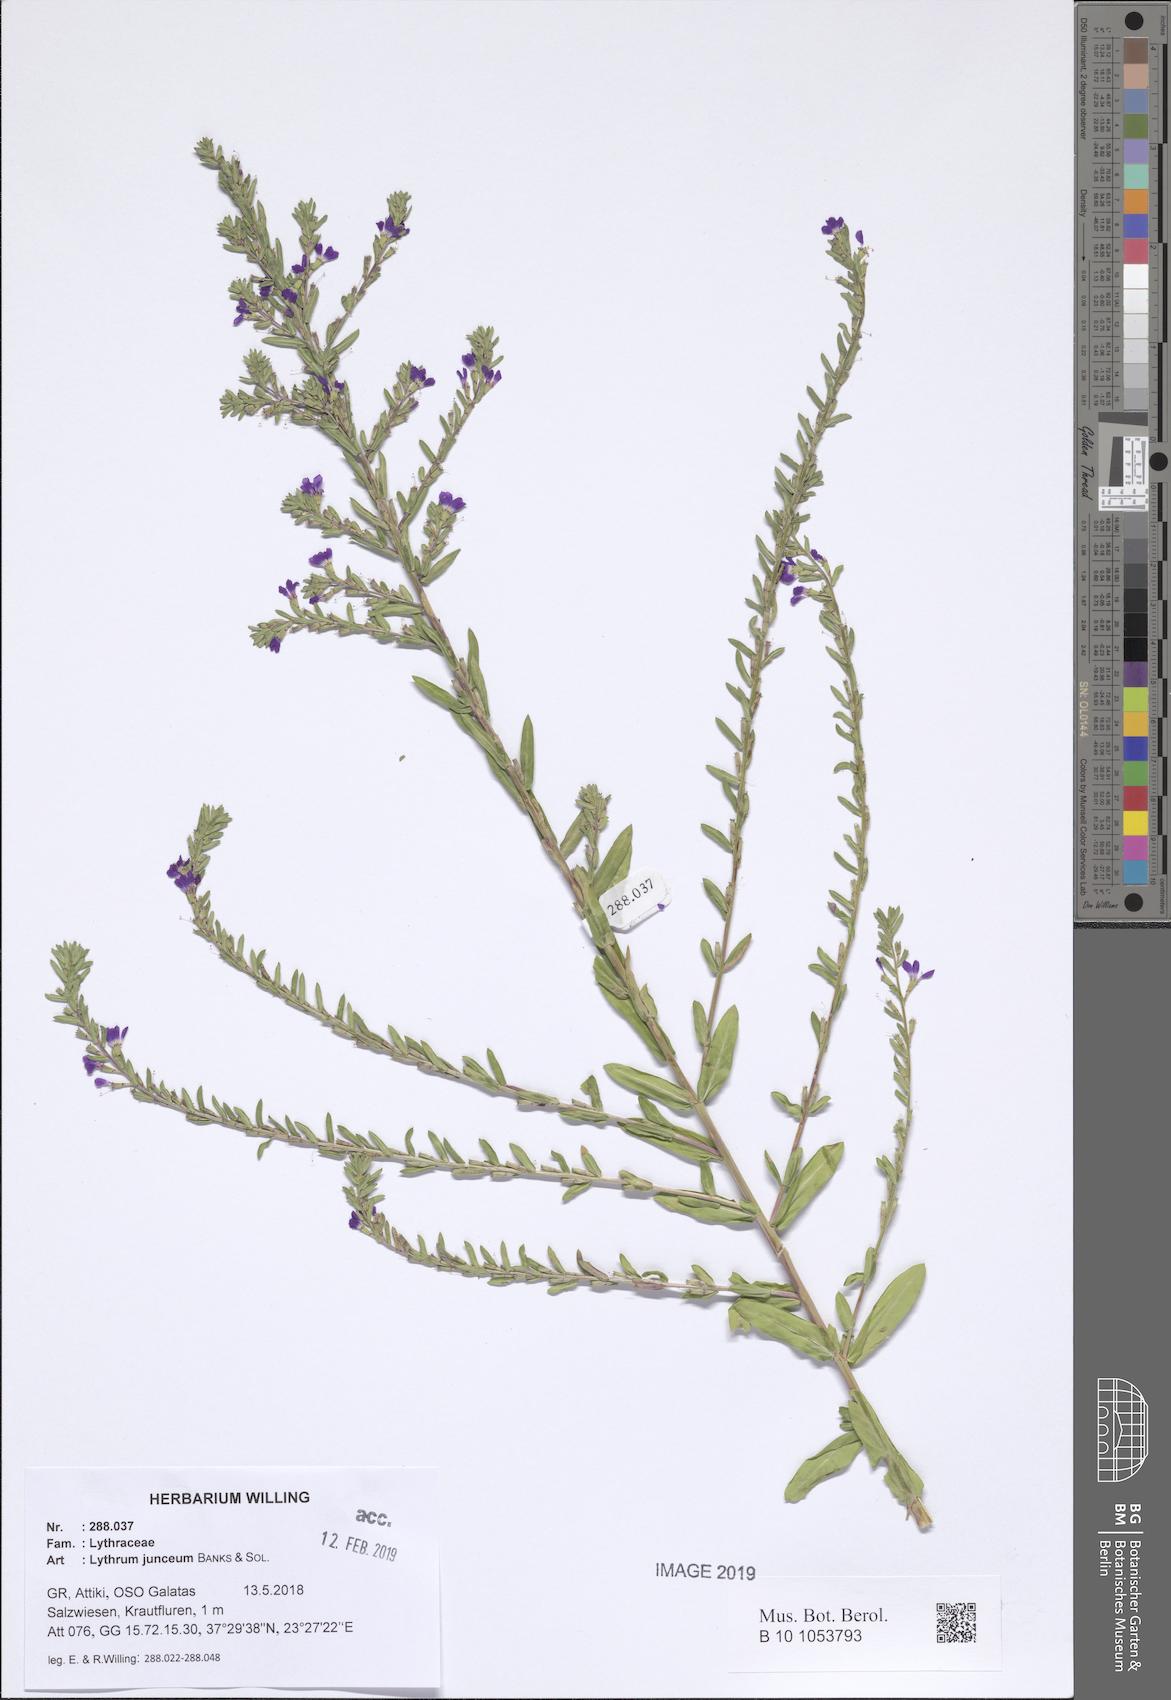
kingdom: Plantae
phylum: Tracheophyta
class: Magnoliopsida
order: Myrtales
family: Lythraceae
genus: Lythrum
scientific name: Lythrum junceum
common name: False grass-poly
